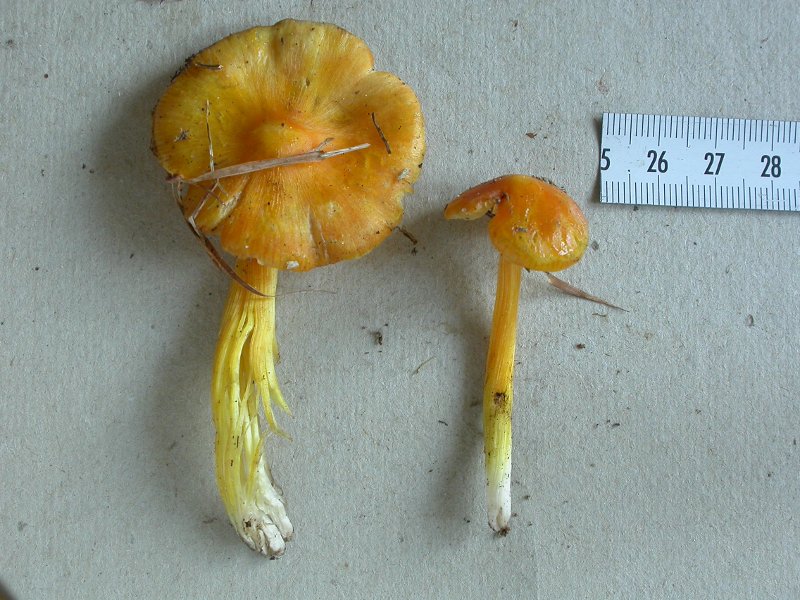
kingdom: Fungi
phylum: Basidiomycota
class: Agaricomycetes
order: Agaricales
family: Hygrophoraceae
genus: Hygrocybe
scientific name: Hygrocybe acutoconica
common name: spidspuklet vokshat
